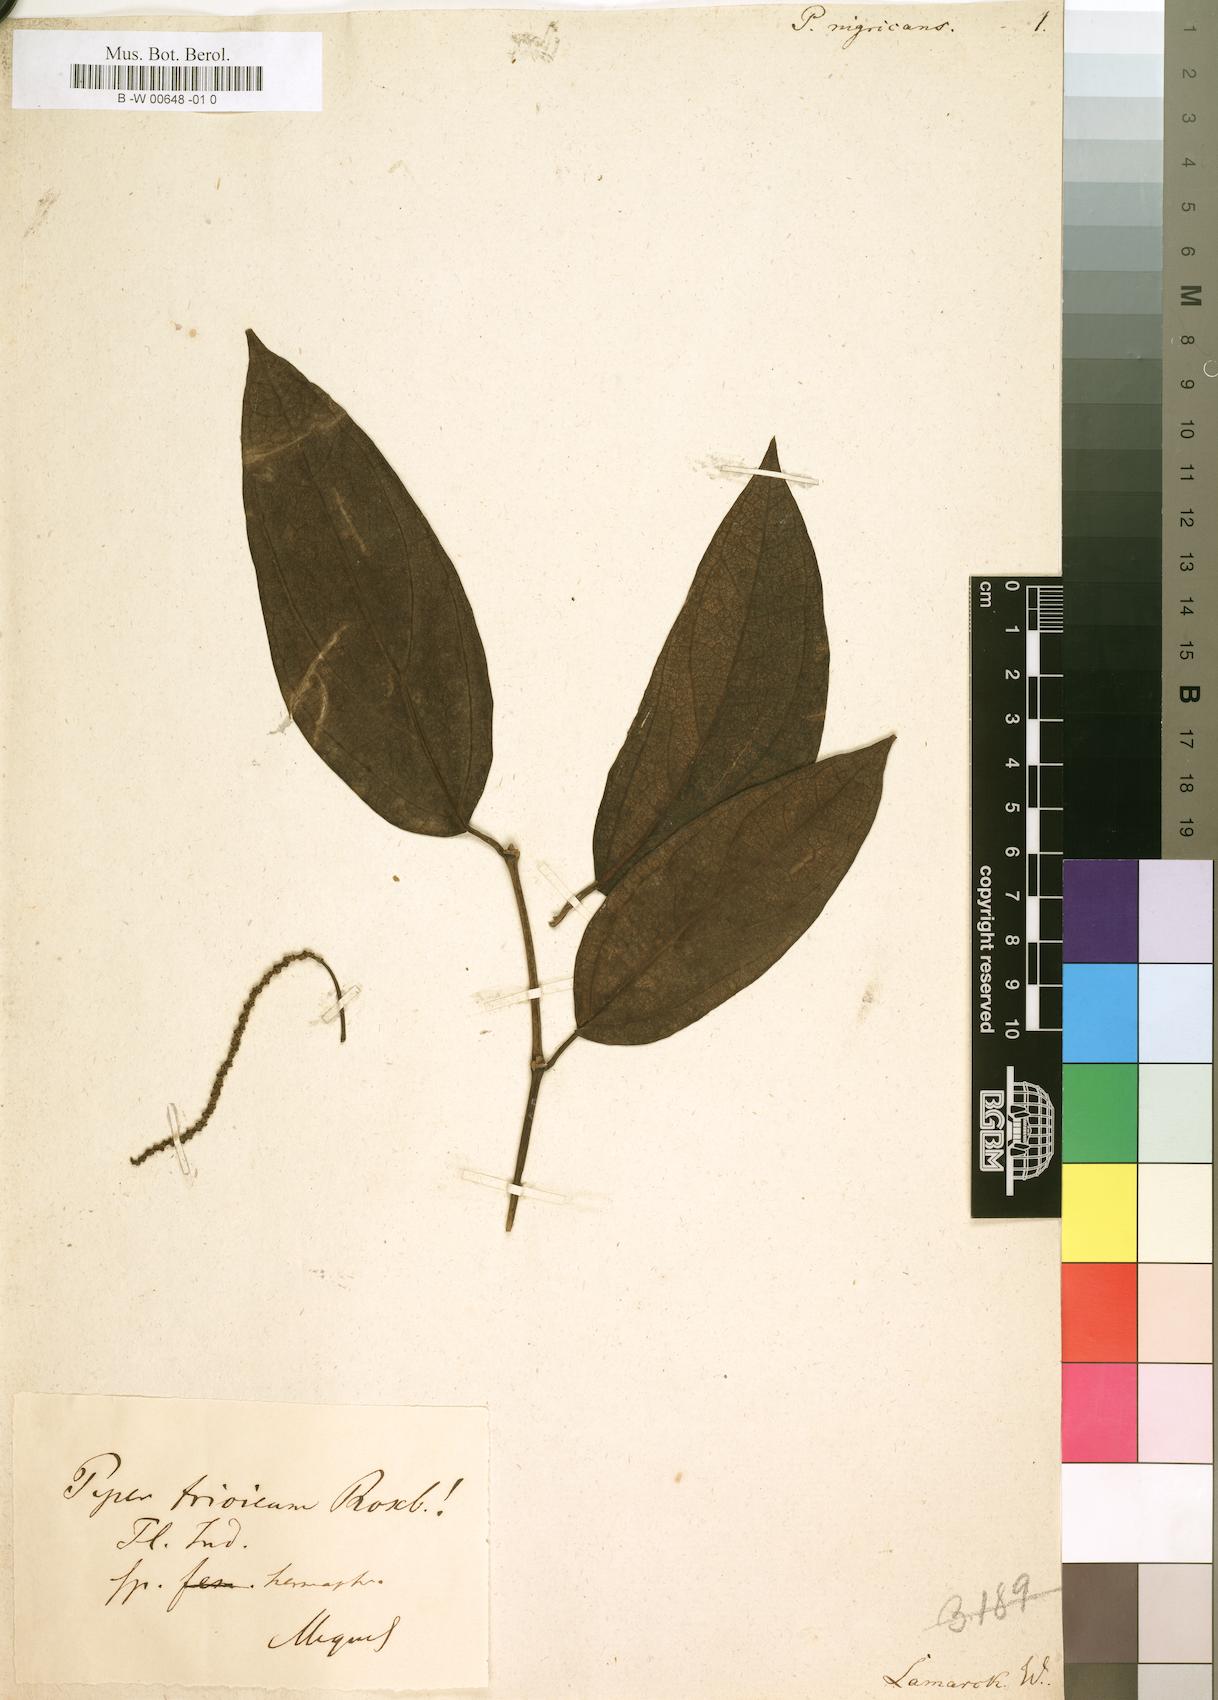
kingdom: Plantae
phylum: Tracheophyta
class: Magnoliopsida
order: Piperales
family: Piperaceae
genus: Piper
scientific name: Piper nigrum
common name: Black pepper
